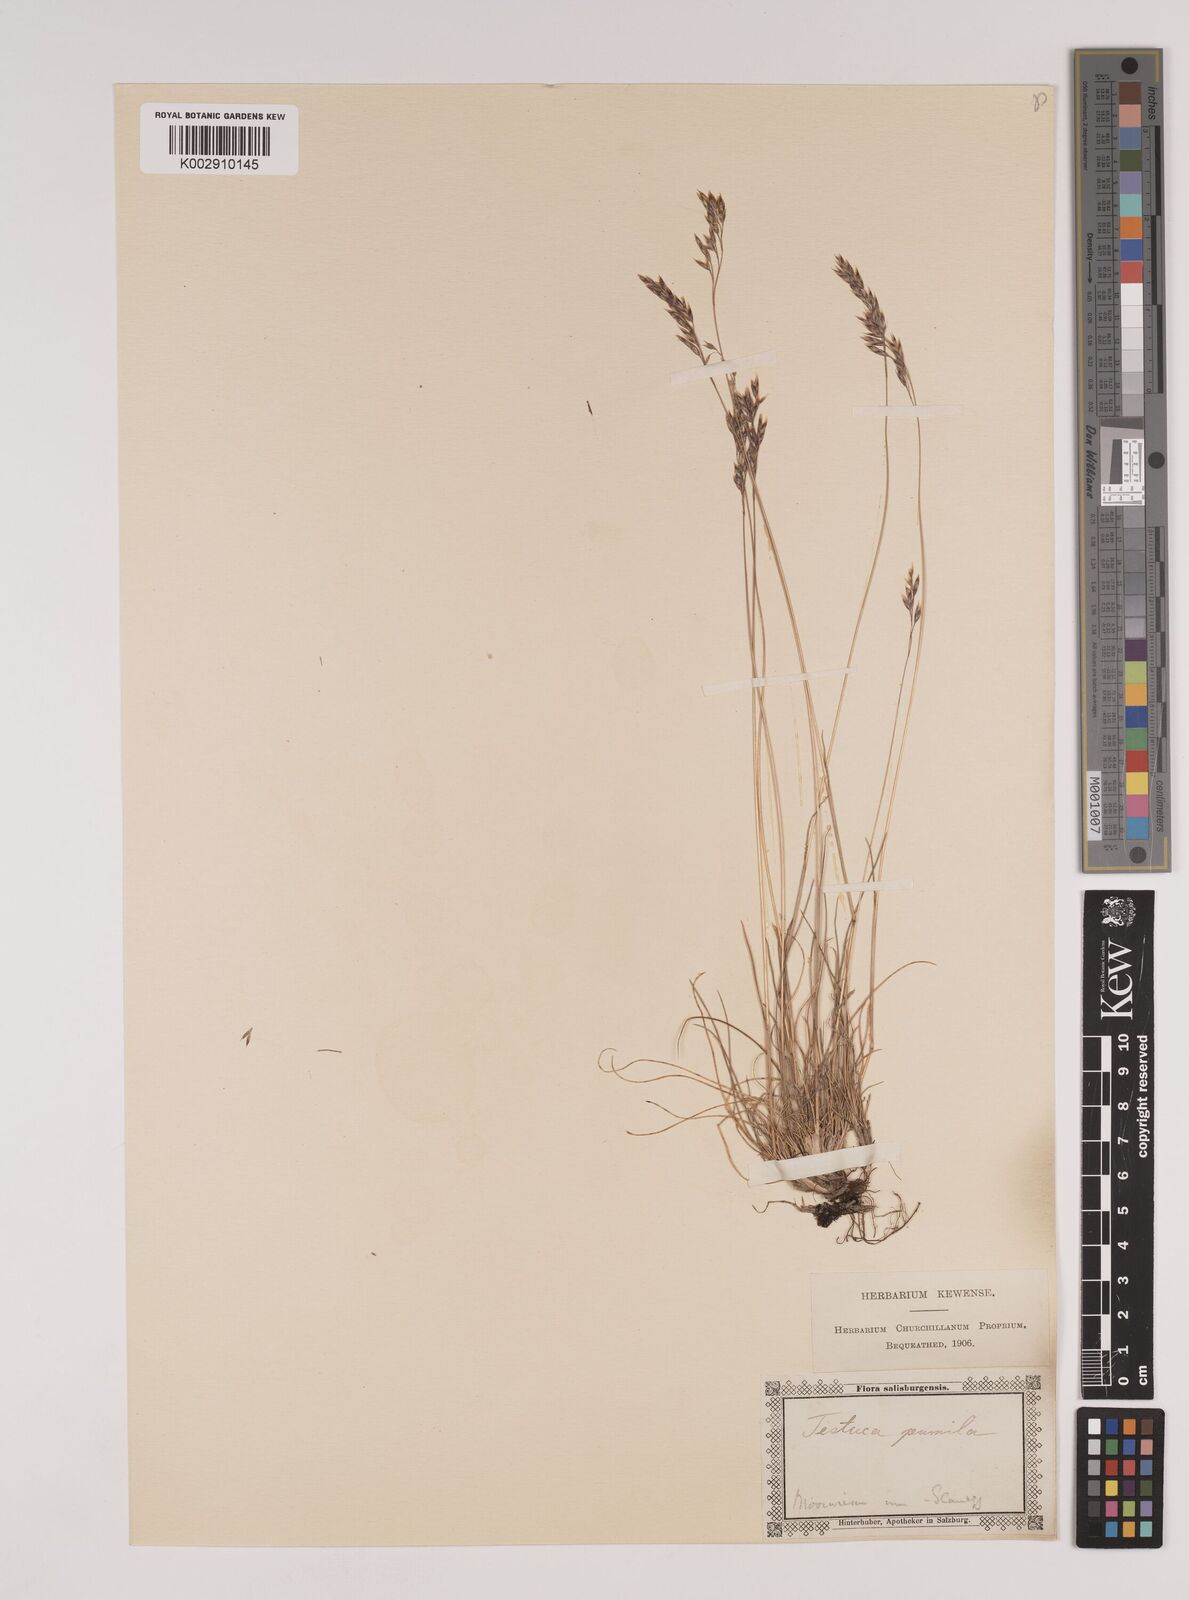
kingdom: Plantae
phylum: Tracheophyta
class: Liliopsida
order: Poales
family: Poaceae
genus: Festuca
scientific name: Festuca
